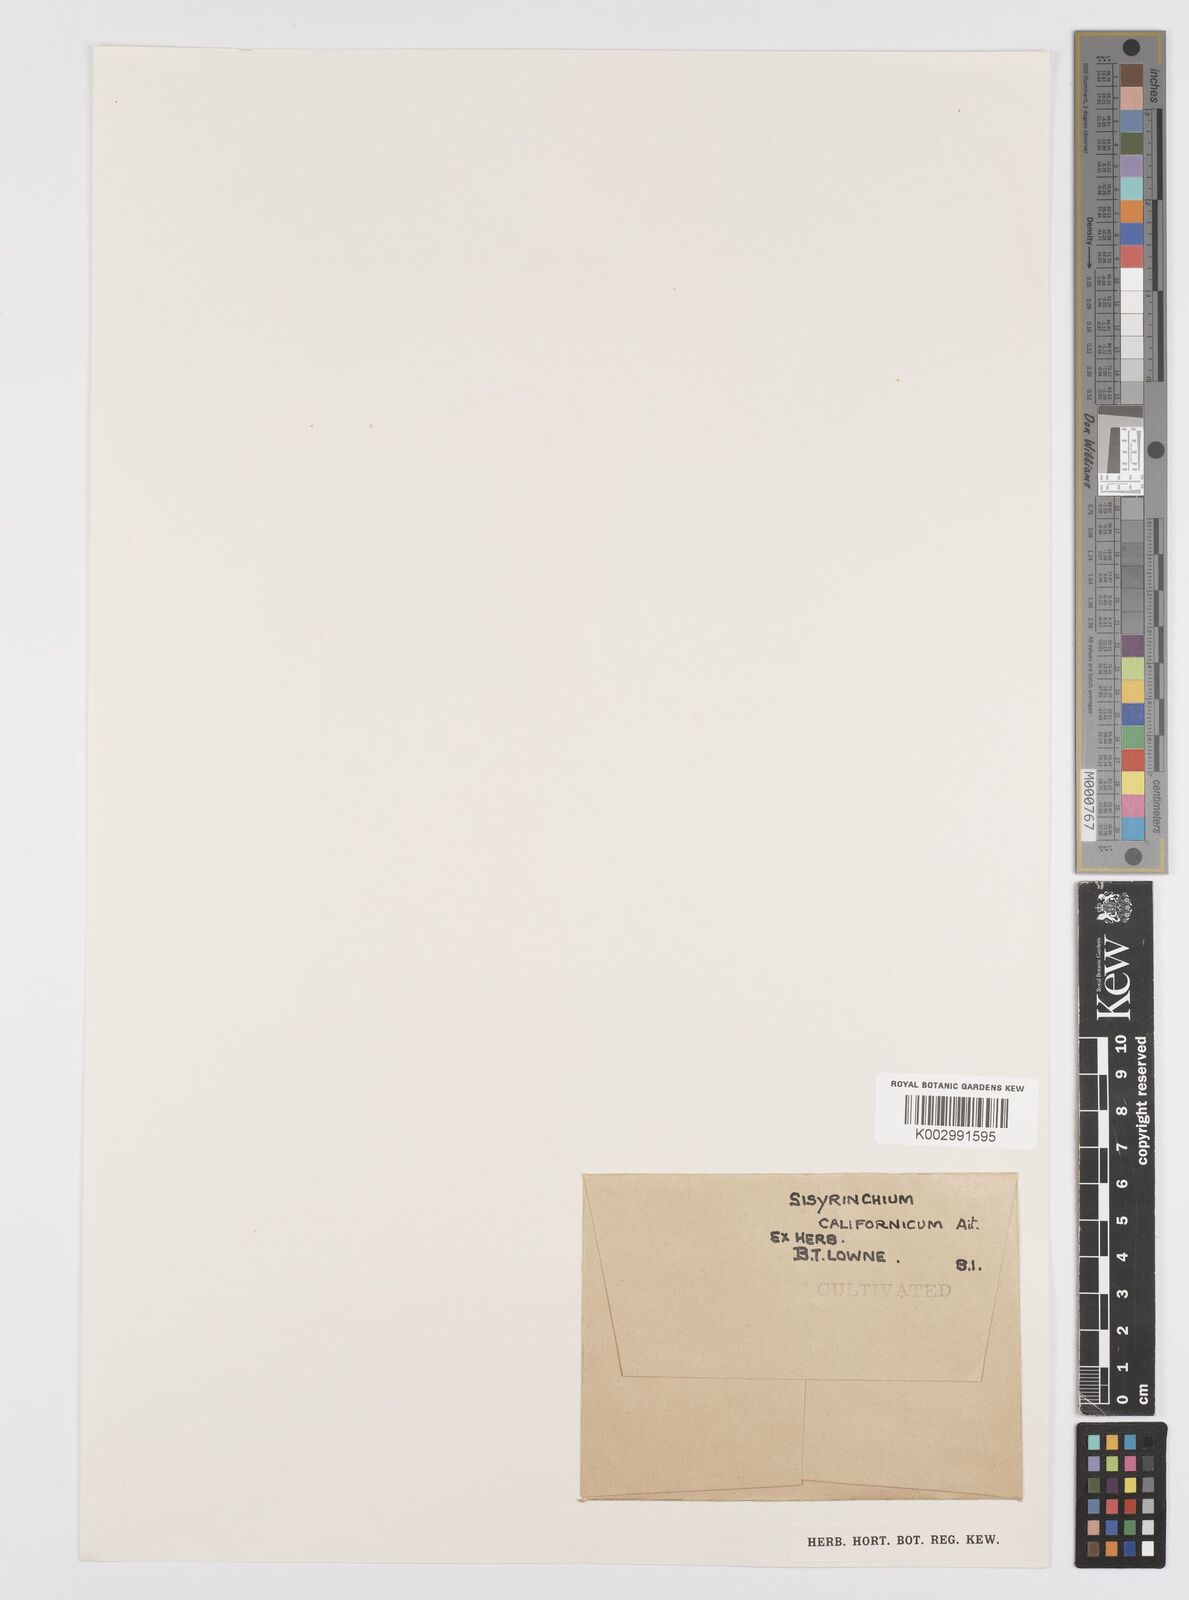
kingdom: Plantae
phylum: Tracheophyta
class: Liliopsida
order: Asparagales
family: Iridaceae
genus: Sisyrinchium
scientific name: Sisyrinchium californicum
